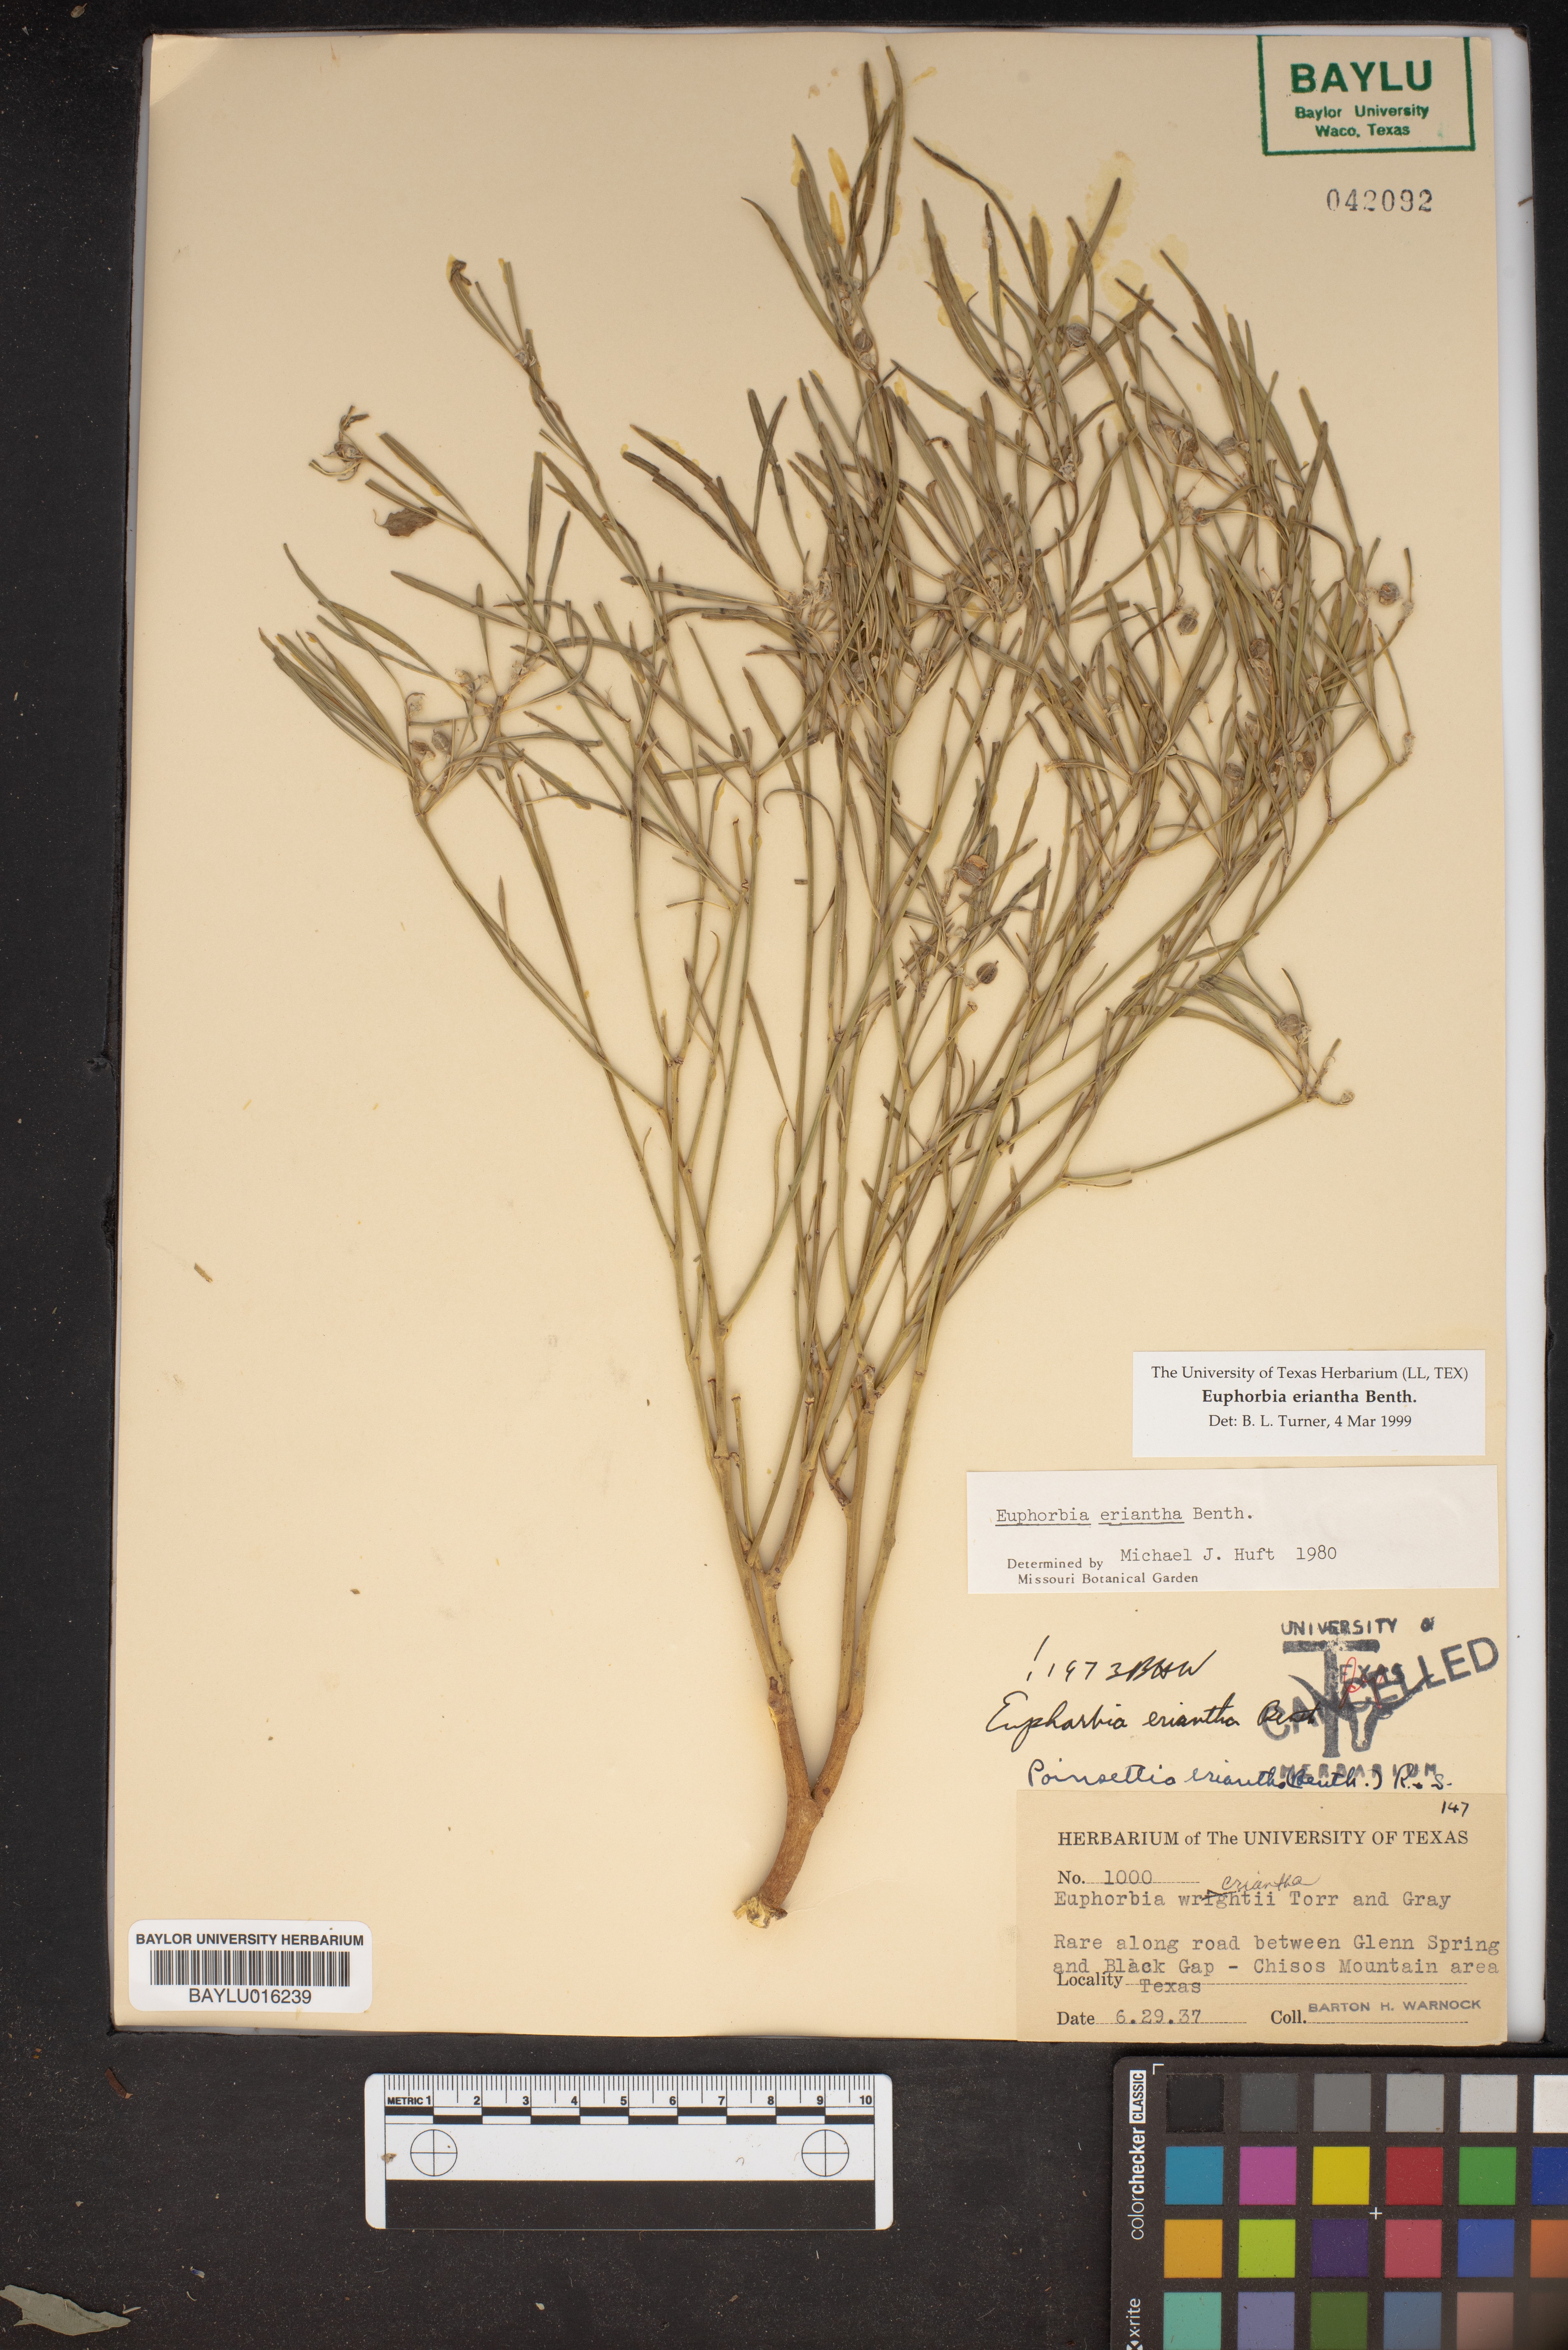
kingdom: Plantae
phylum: Tracheophyta
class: Magnoliopsida
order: Malpighiales
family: Euphorbiaceae
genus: Euphorbia
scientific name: Euphorbia eriantha
